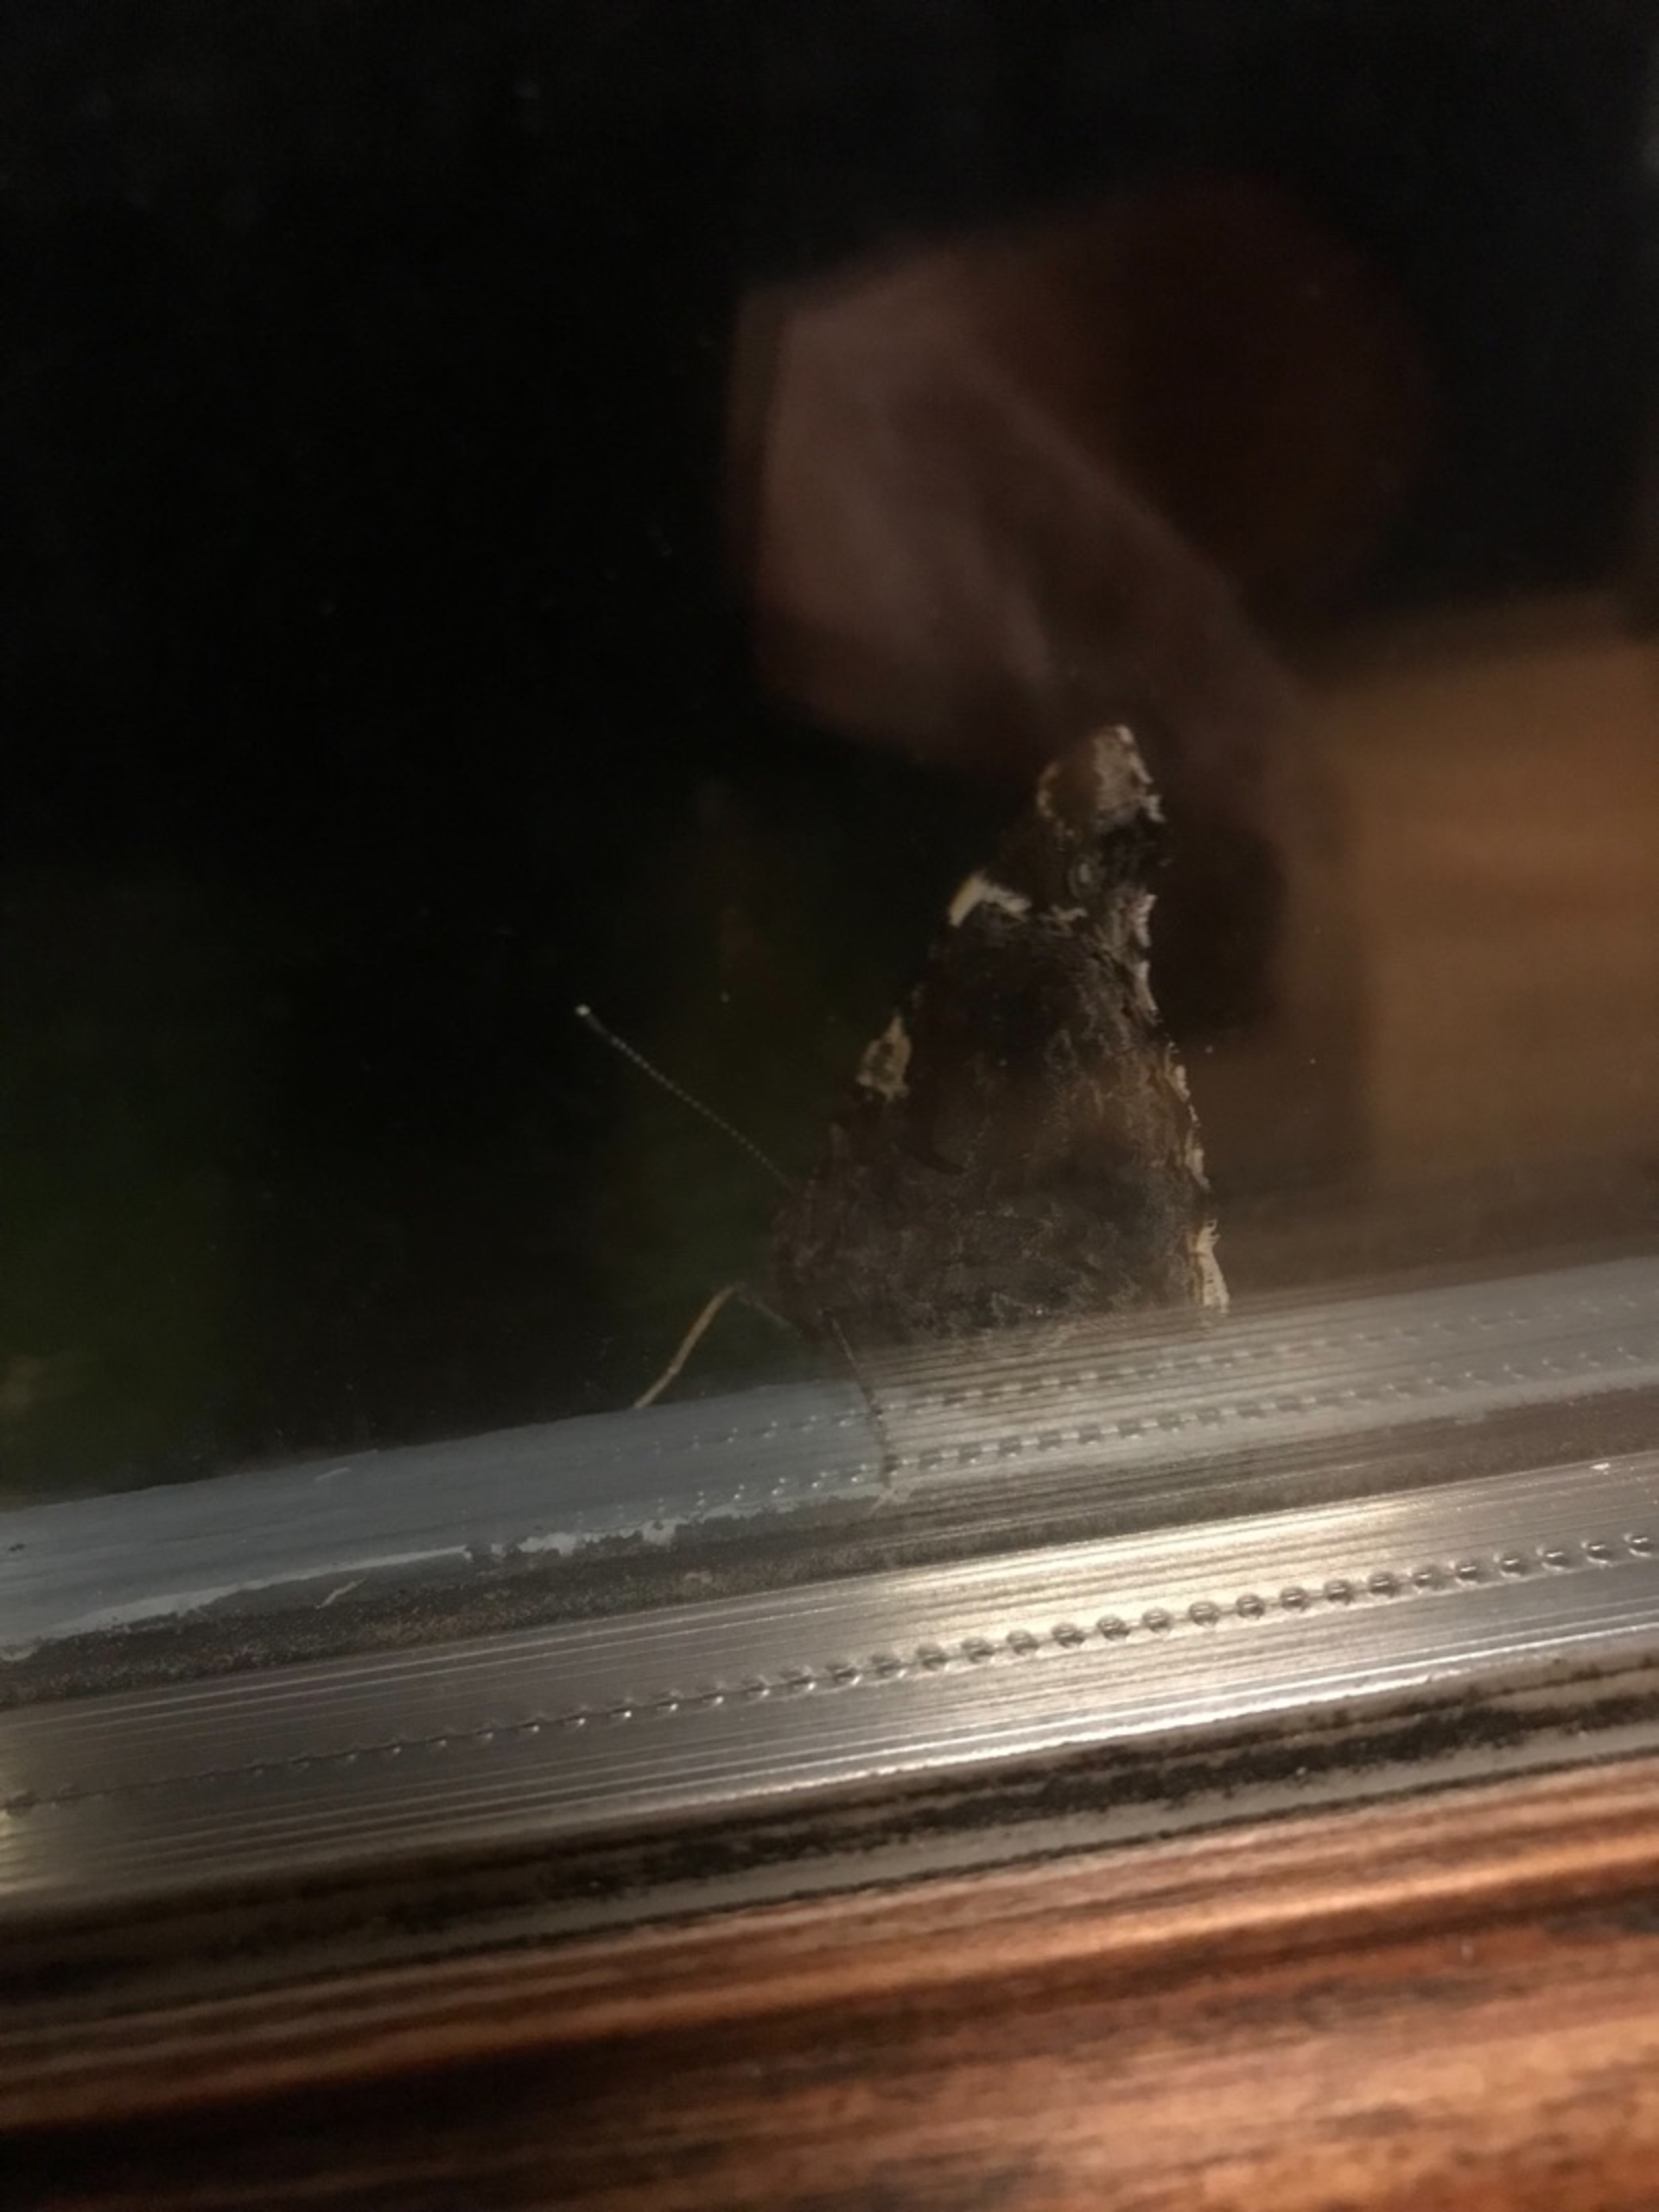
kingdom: Animalia
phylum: Arthropoda
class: Insecta
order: Lepidoptera
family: Nymphalidae
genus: Vanessa
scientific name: Vanessa atalanta
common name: Admiral
